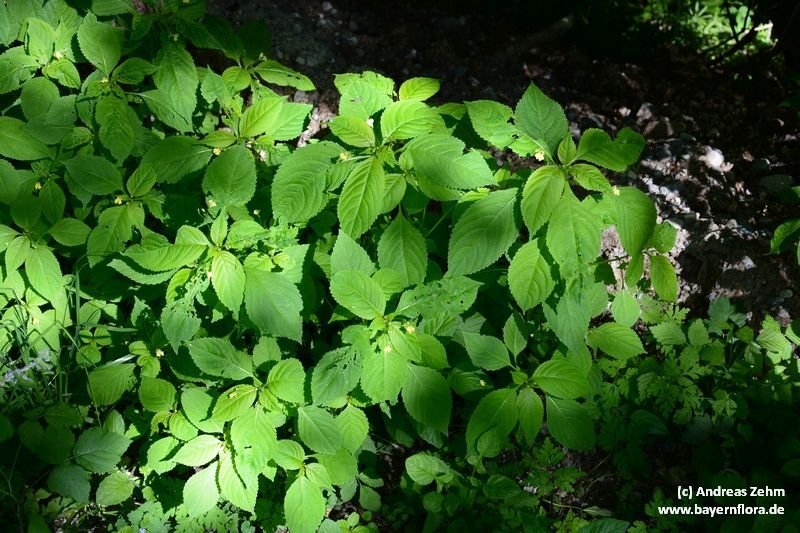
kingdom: Plantae
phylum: Tracheophyta
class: Magnoliopsida
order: Ericales
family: Balsaminaceae
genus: Impatiens
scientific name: Impatiens parviflora
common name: Small balsam
